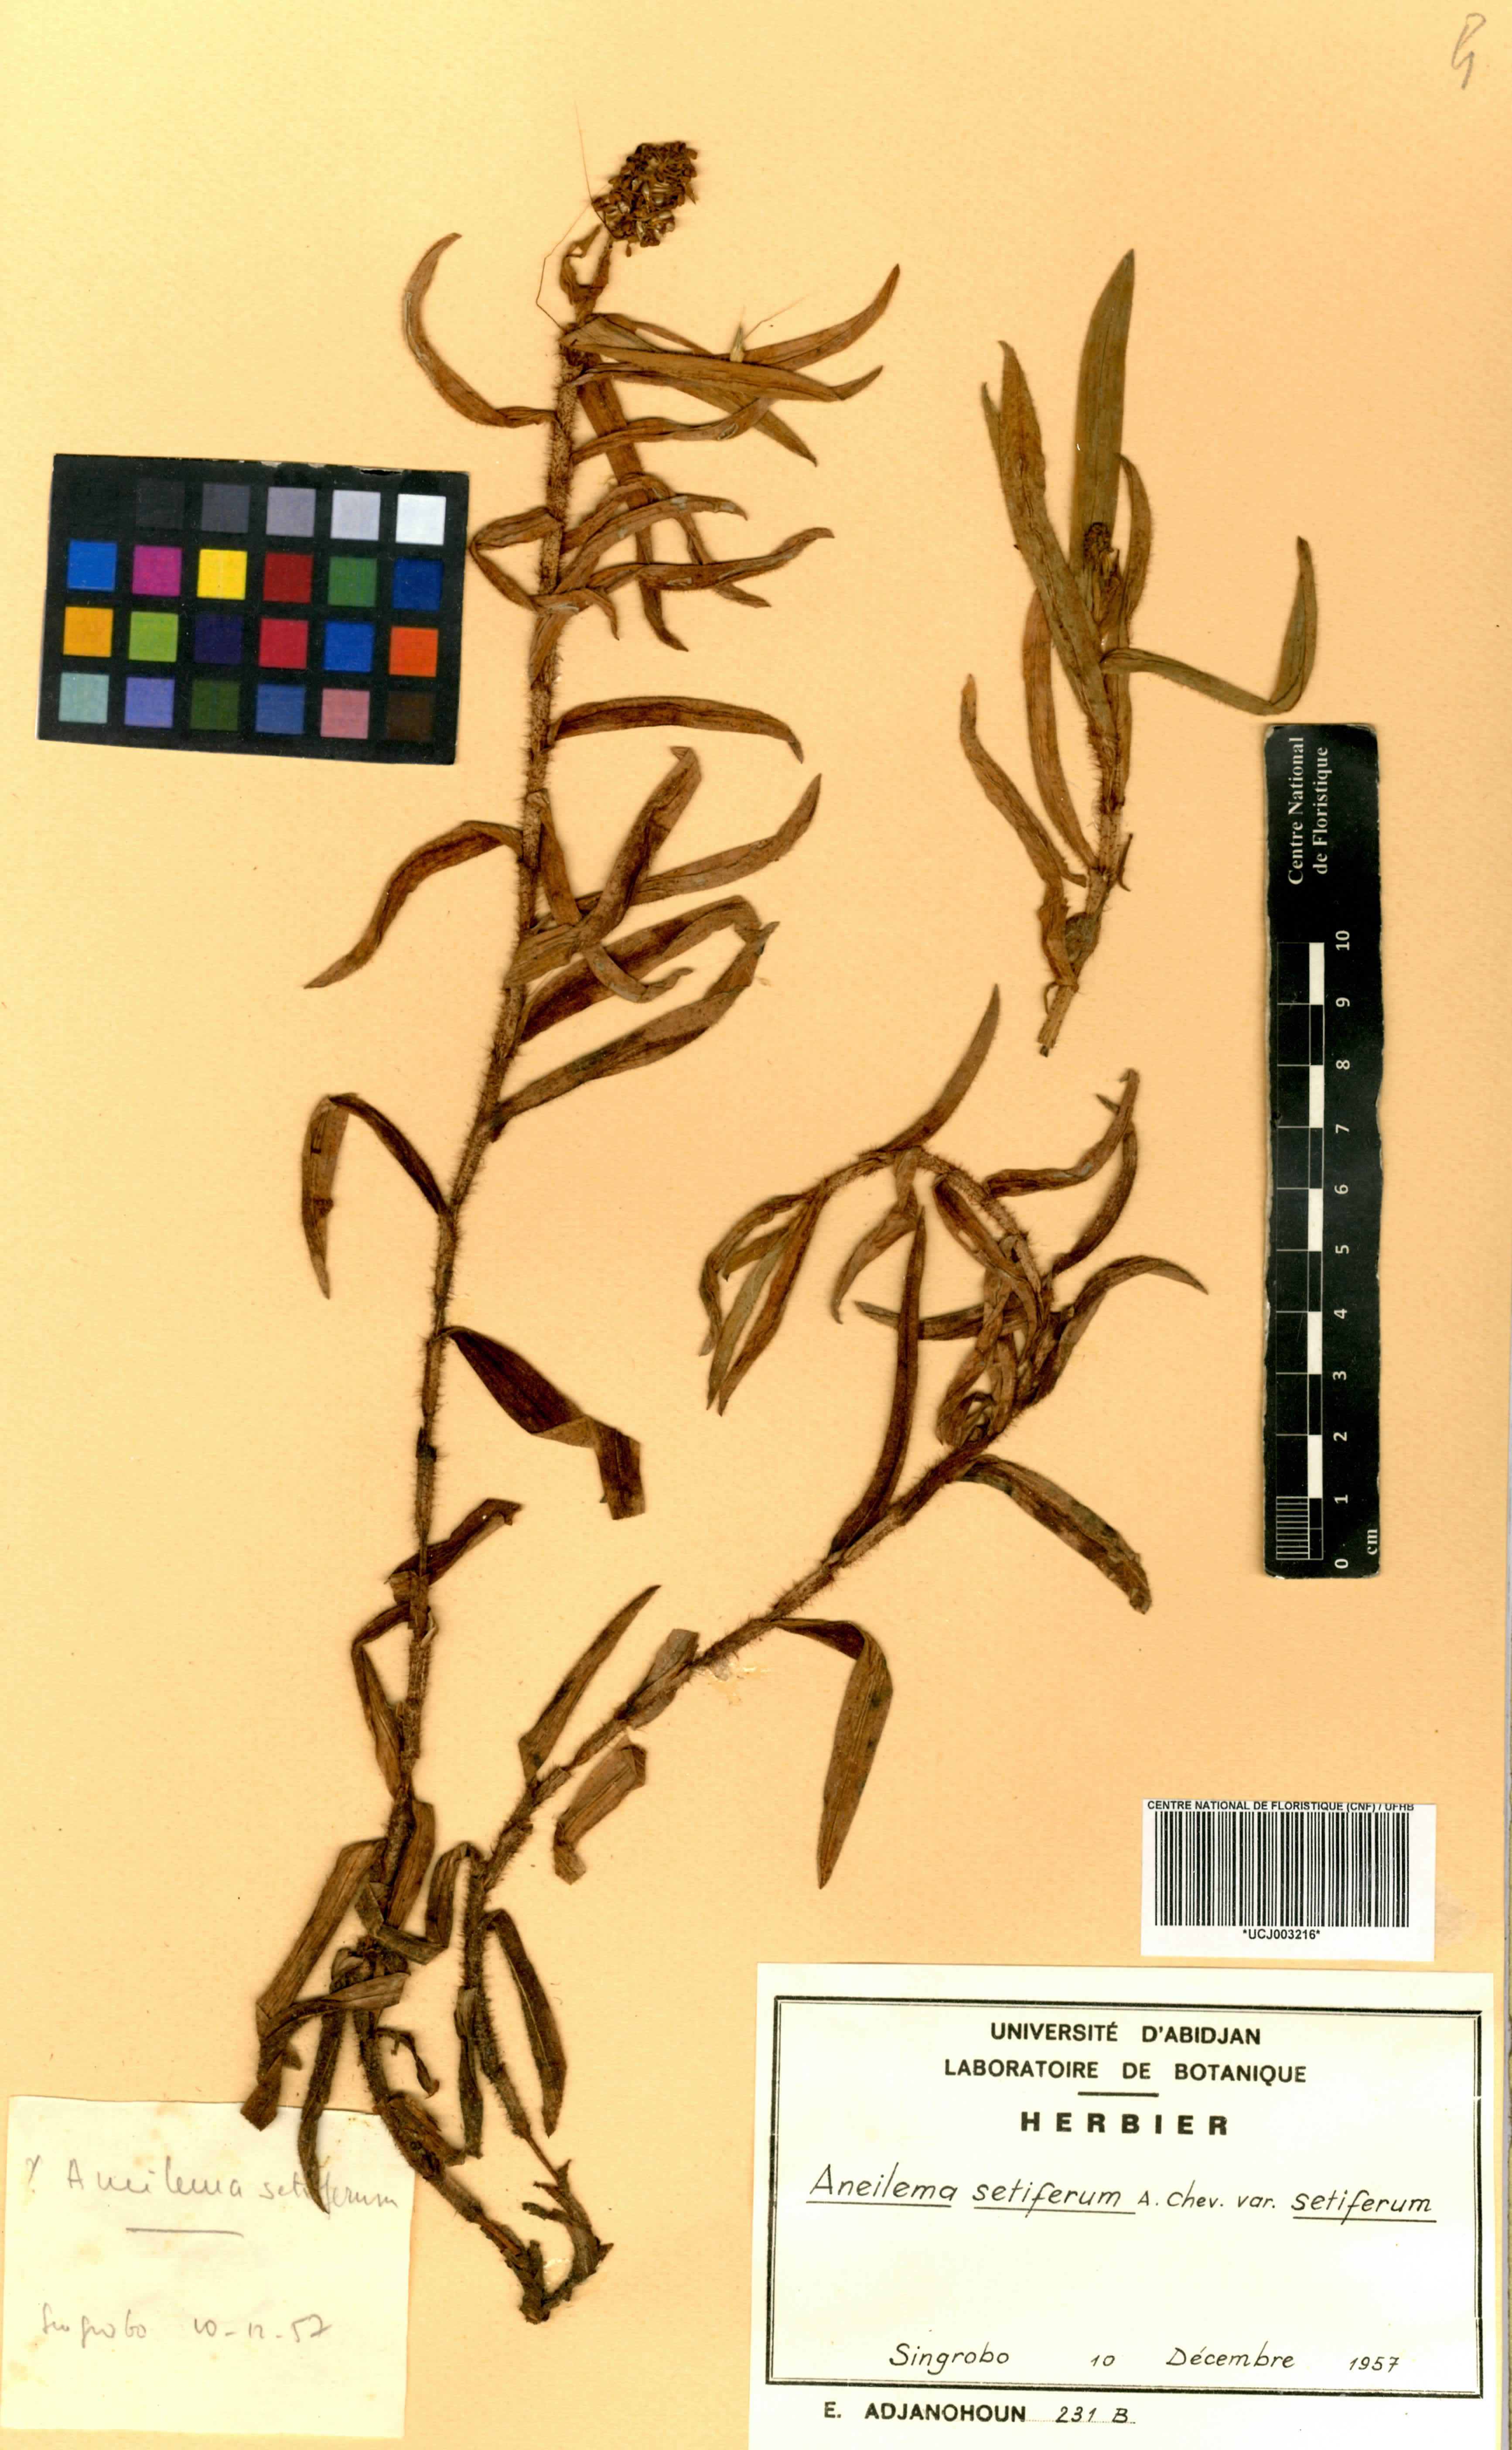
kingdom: Plantae
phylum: Tracheophyta
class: Liliopsida
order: Commelinales
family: Commelinaceae
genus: Aneilema
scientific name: Aneilema setiferum
